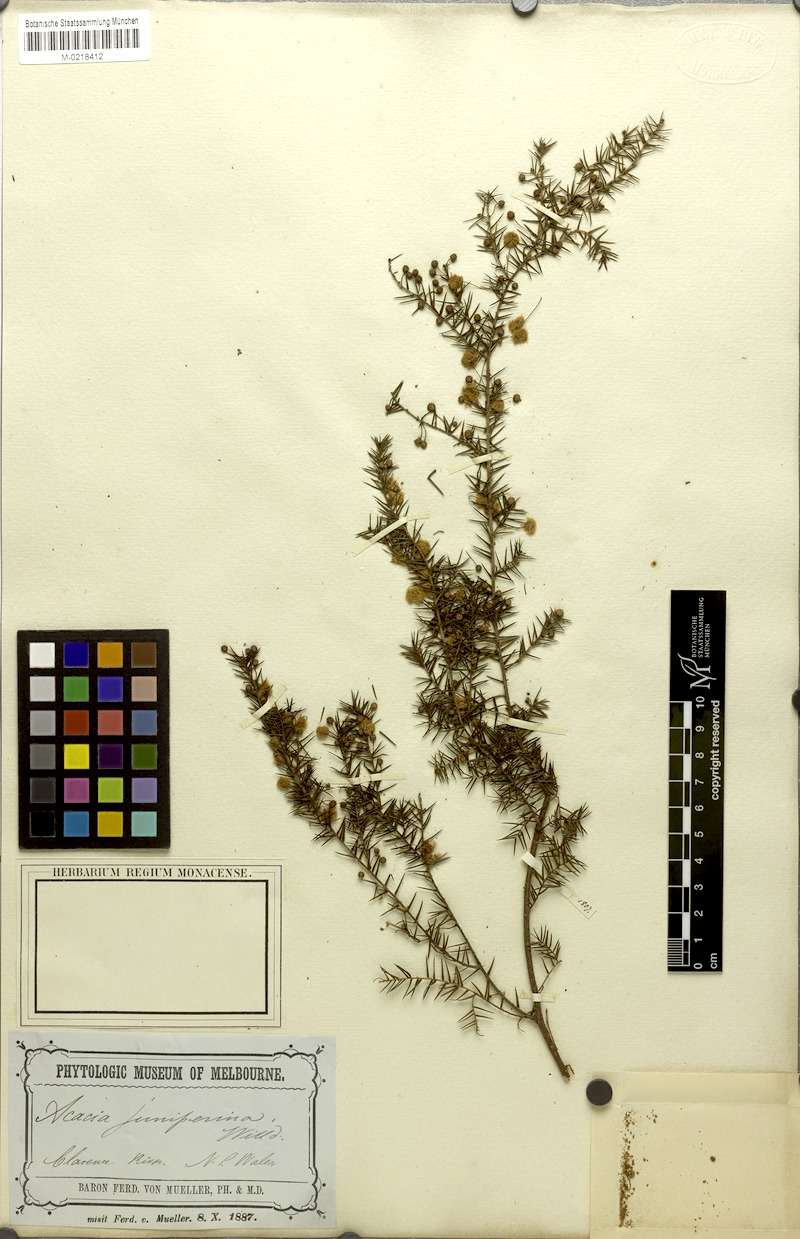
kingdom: Plantae
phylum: Tracheophyta
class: Magnoliopsida
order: Fabales
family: Fabaceae
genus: Acacia
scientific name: Acacia ulicifolia
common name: Juniper wattle
